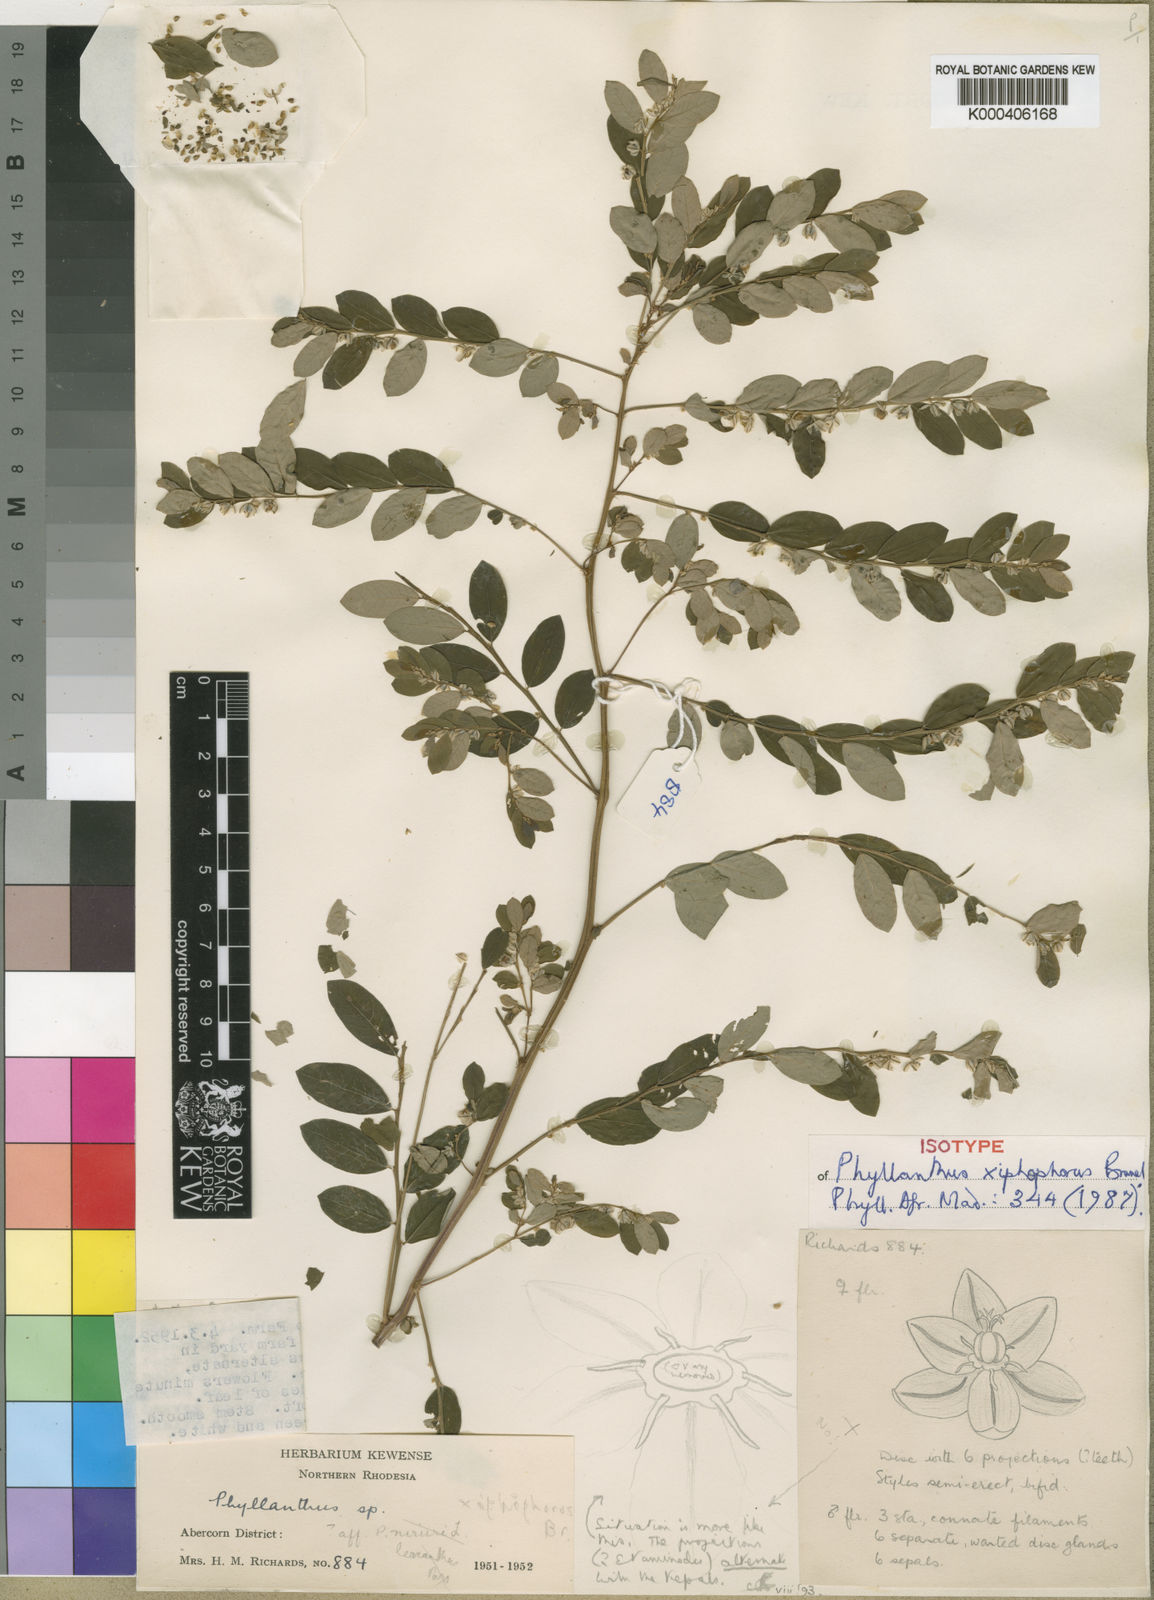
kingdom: Plantae
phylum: Tracheophyta
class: Magnoliopsida
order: Malpighiales
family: Phyllanthaceae
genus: Phyllanthus
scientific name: Phyllanthus
